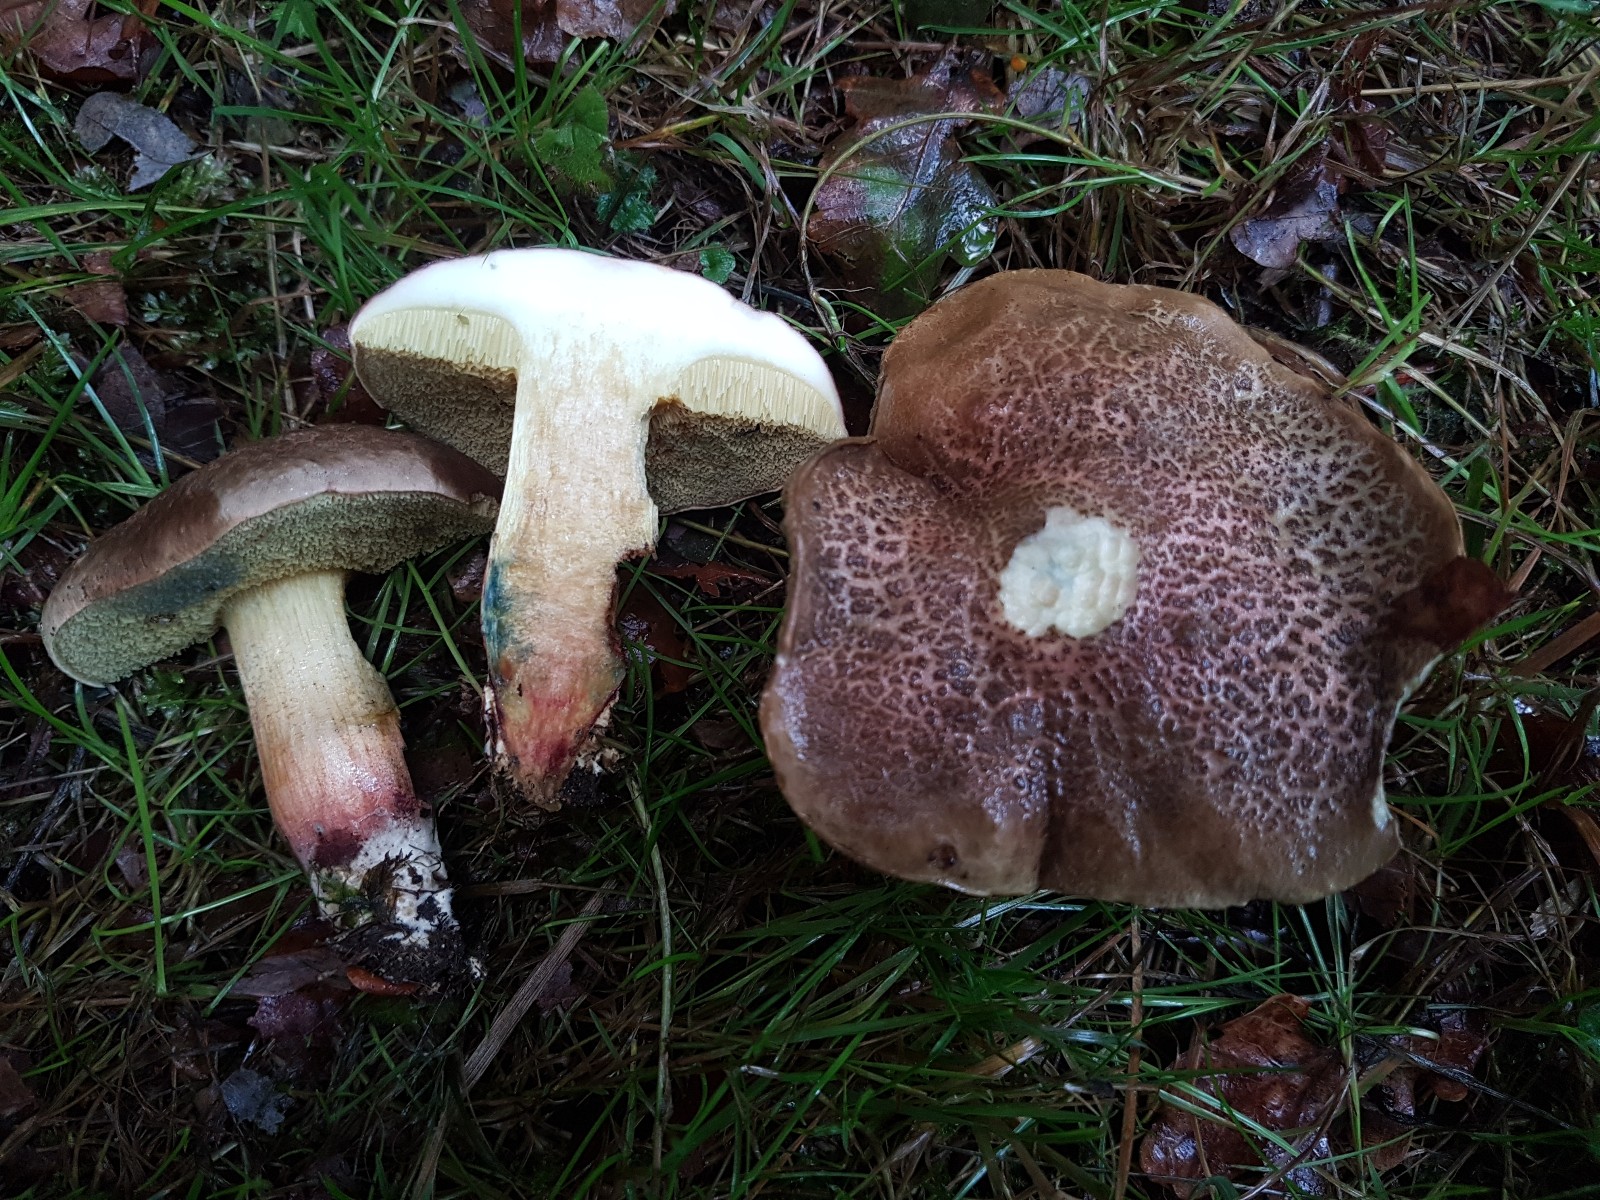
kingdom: Fungi
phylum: Basidiomycota
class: Agaricomycetes
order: Boletales
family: Boletaceae
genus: Xerocomellus
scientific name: Xerocomellus cisalpinus
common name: finsprukken rørhat
